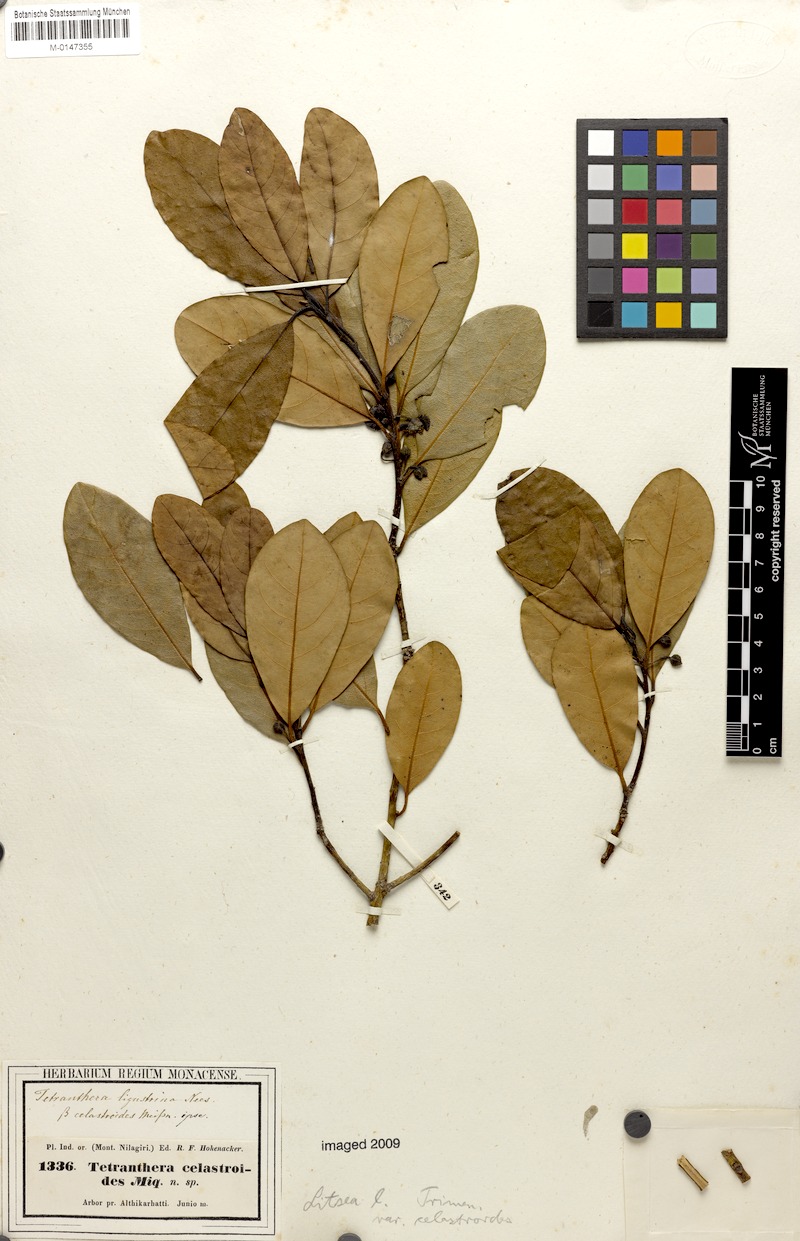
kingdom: Plantae
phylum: Tracheophyta
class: Magnoliopsida
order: Laurales
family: Lauraceae
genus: Litsea
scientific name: Litsea
